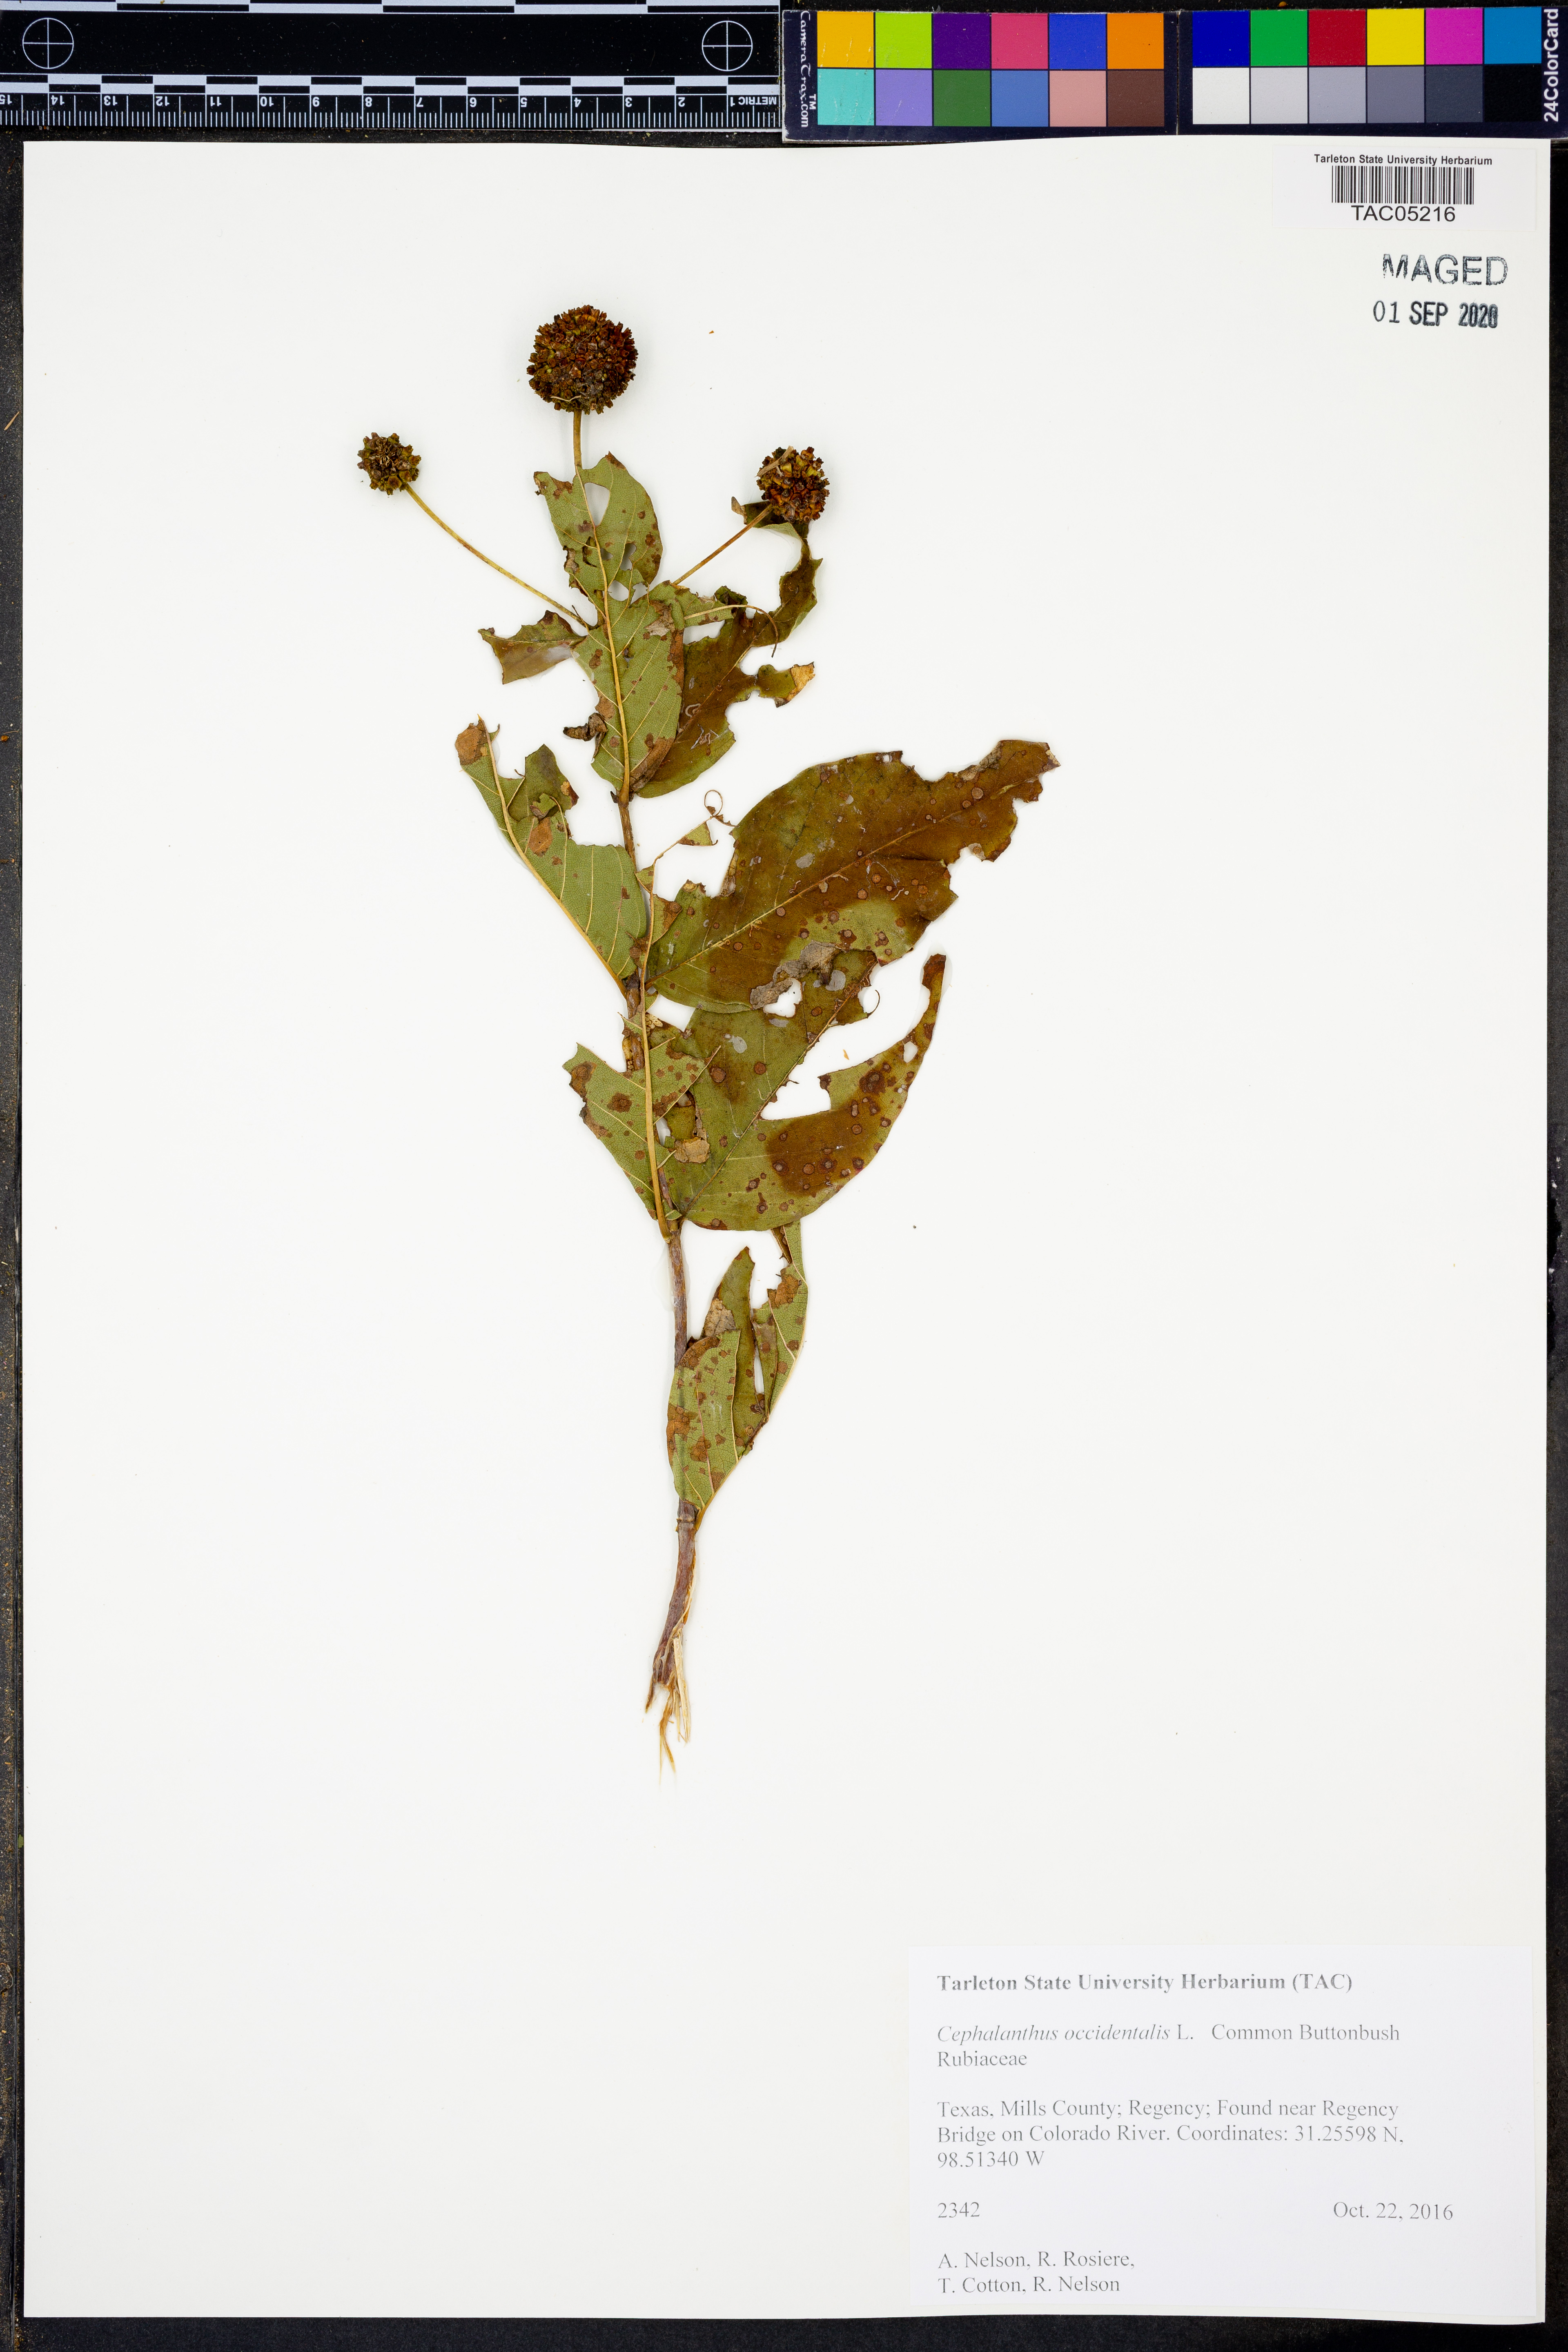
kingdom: Plantae
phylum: Tracheophyta
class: Magnoliopsida
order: Gentianales
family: Rubiaceae
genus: Cephalanthus
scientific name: Cephalanthus occidentalis
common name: Button-willow
